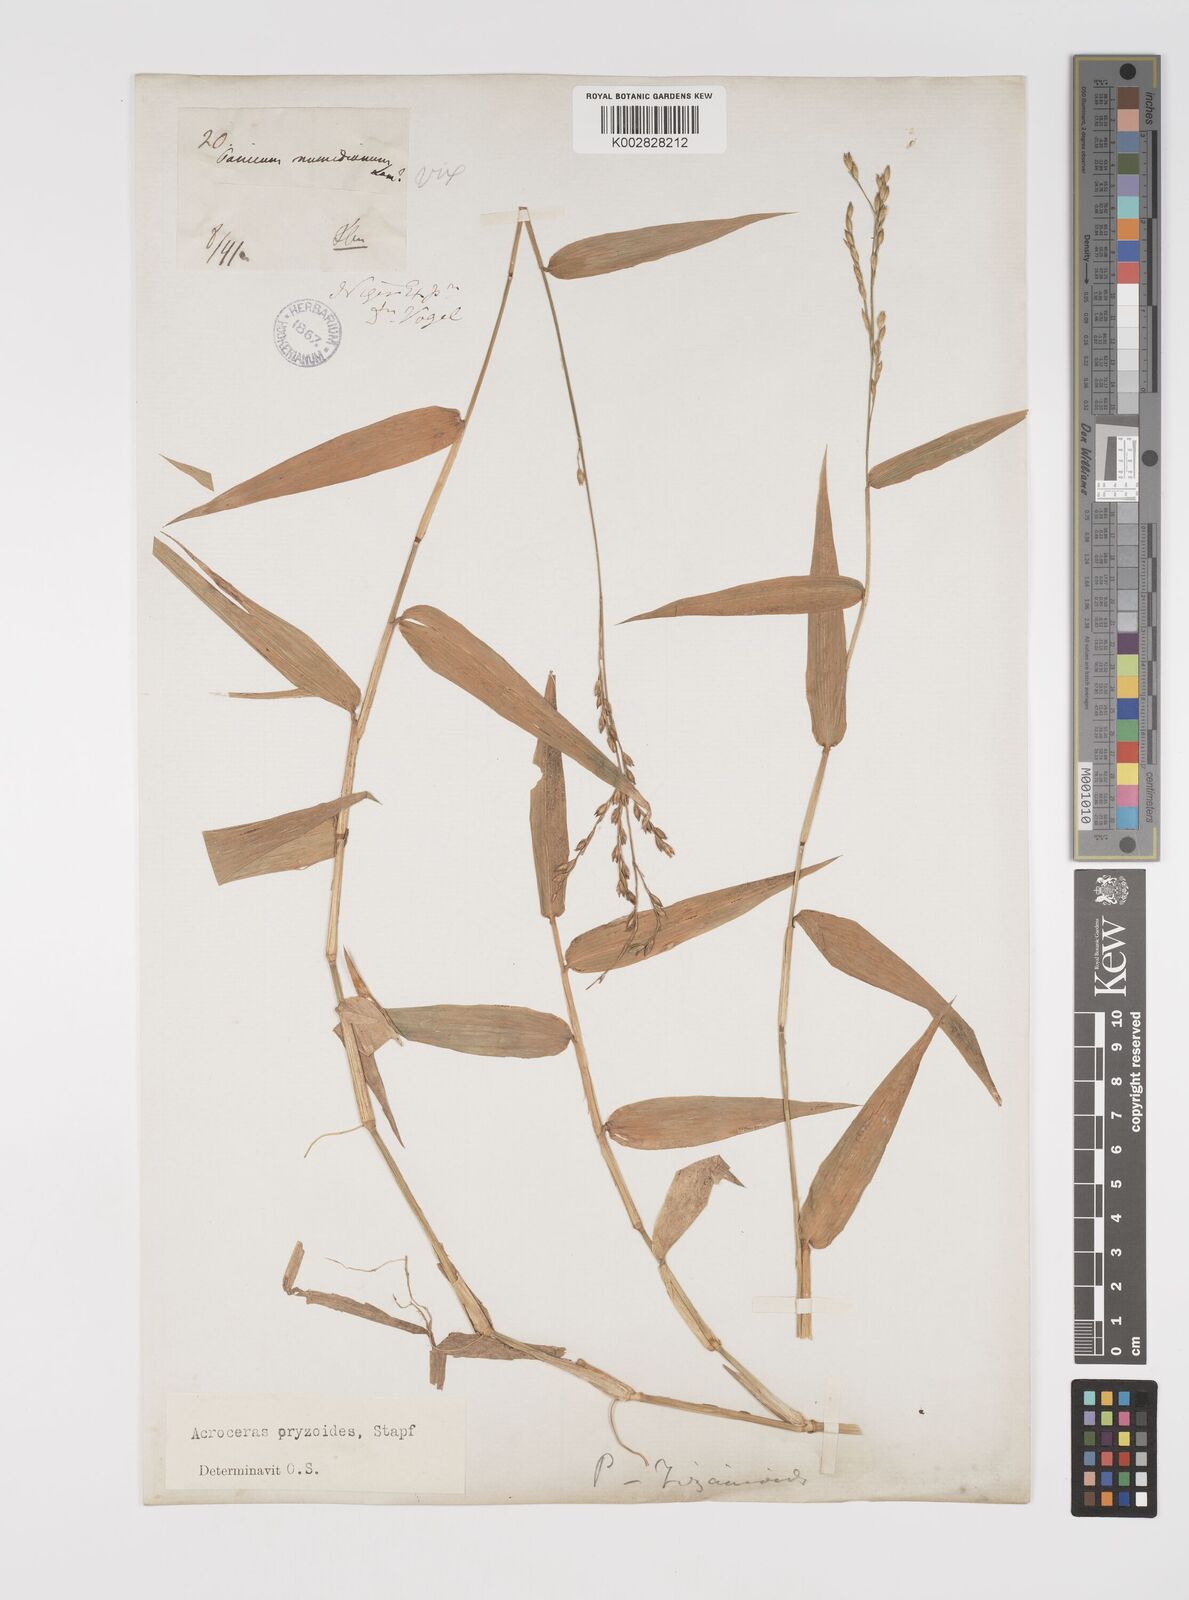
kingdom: Plantae
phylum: Tracheophyta
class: Liliopsida
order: Poales
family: Poaceae
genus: Acroceras
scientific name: Acroceras zizanioides
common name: Oat grass
